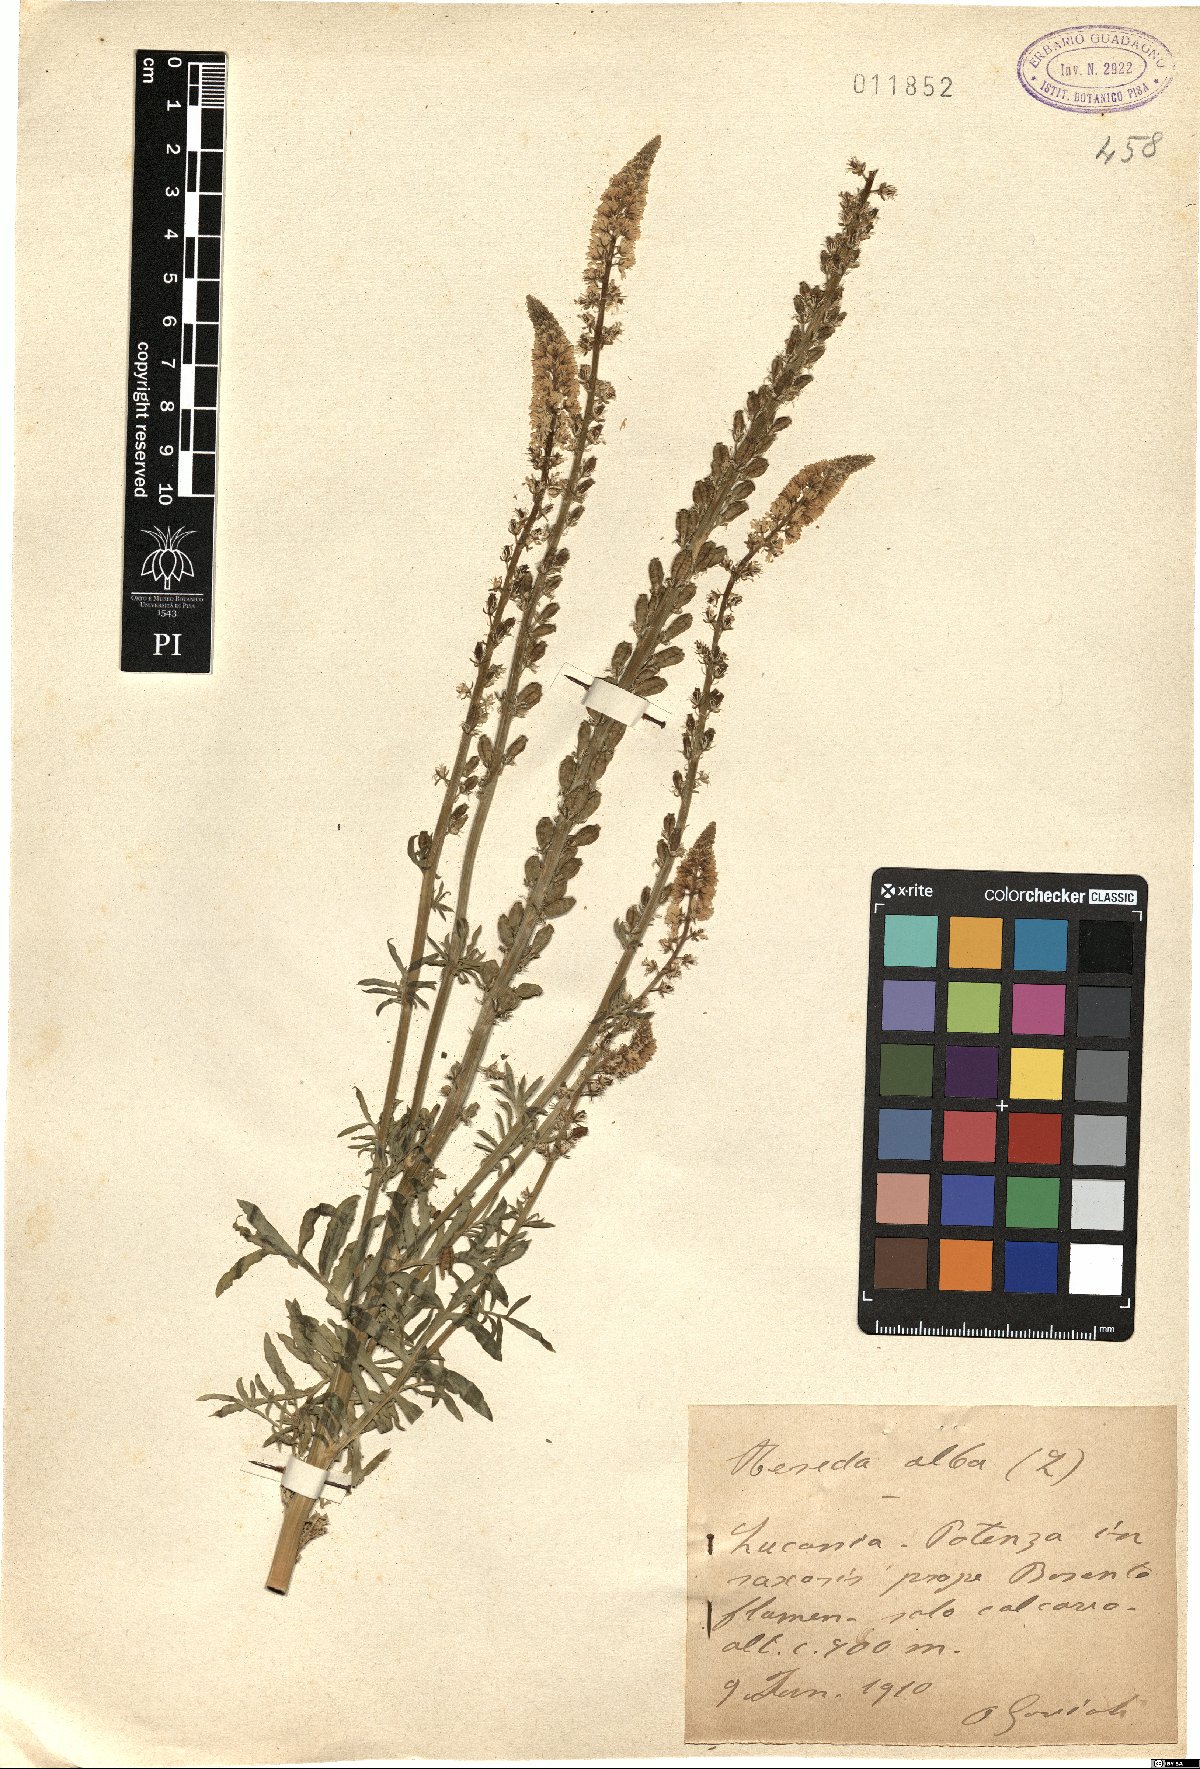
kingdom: Plantae
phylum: Tracheophyta
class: Magnoliopsida
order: Brassicales
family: Resedaceae
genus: Reseda
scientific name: Reseda alba
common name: White mignonette
